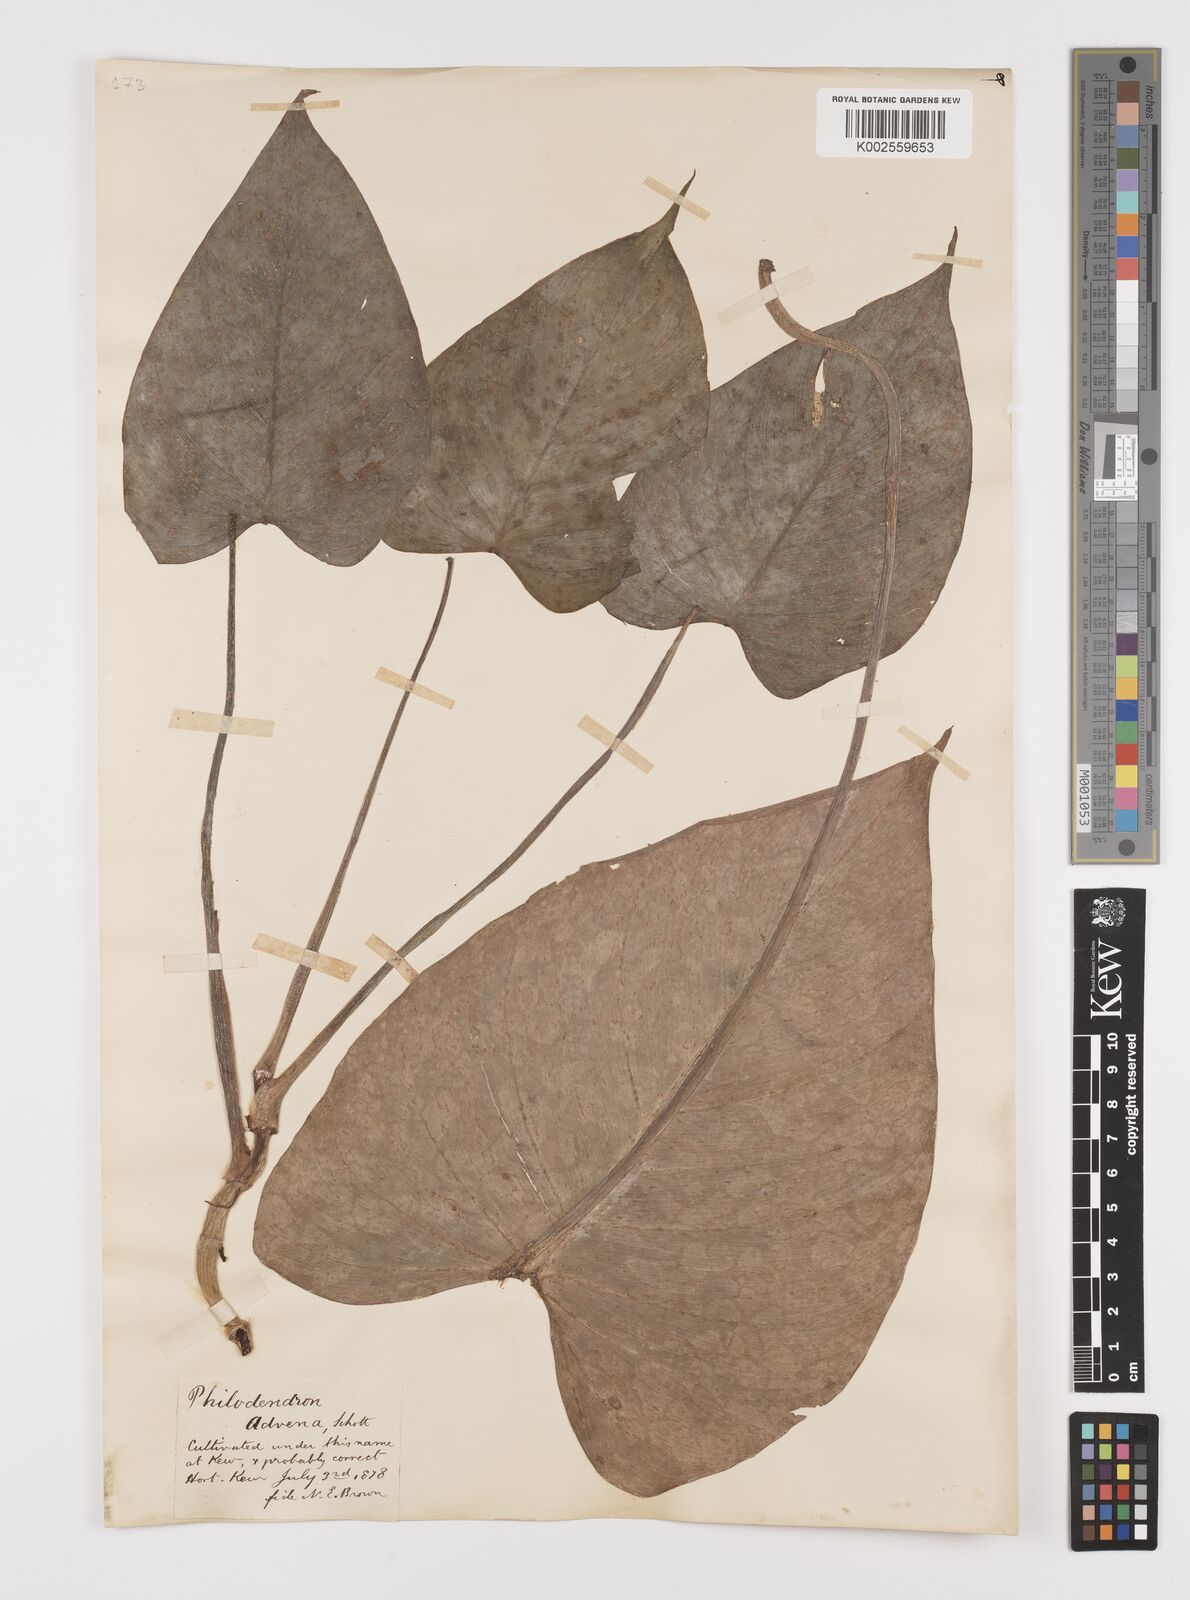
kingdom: Plantae
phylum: Tracheophyta
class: Liliopsida
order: Alismatales
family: Araceae
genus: Philodendron
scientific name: Philodendron advena
